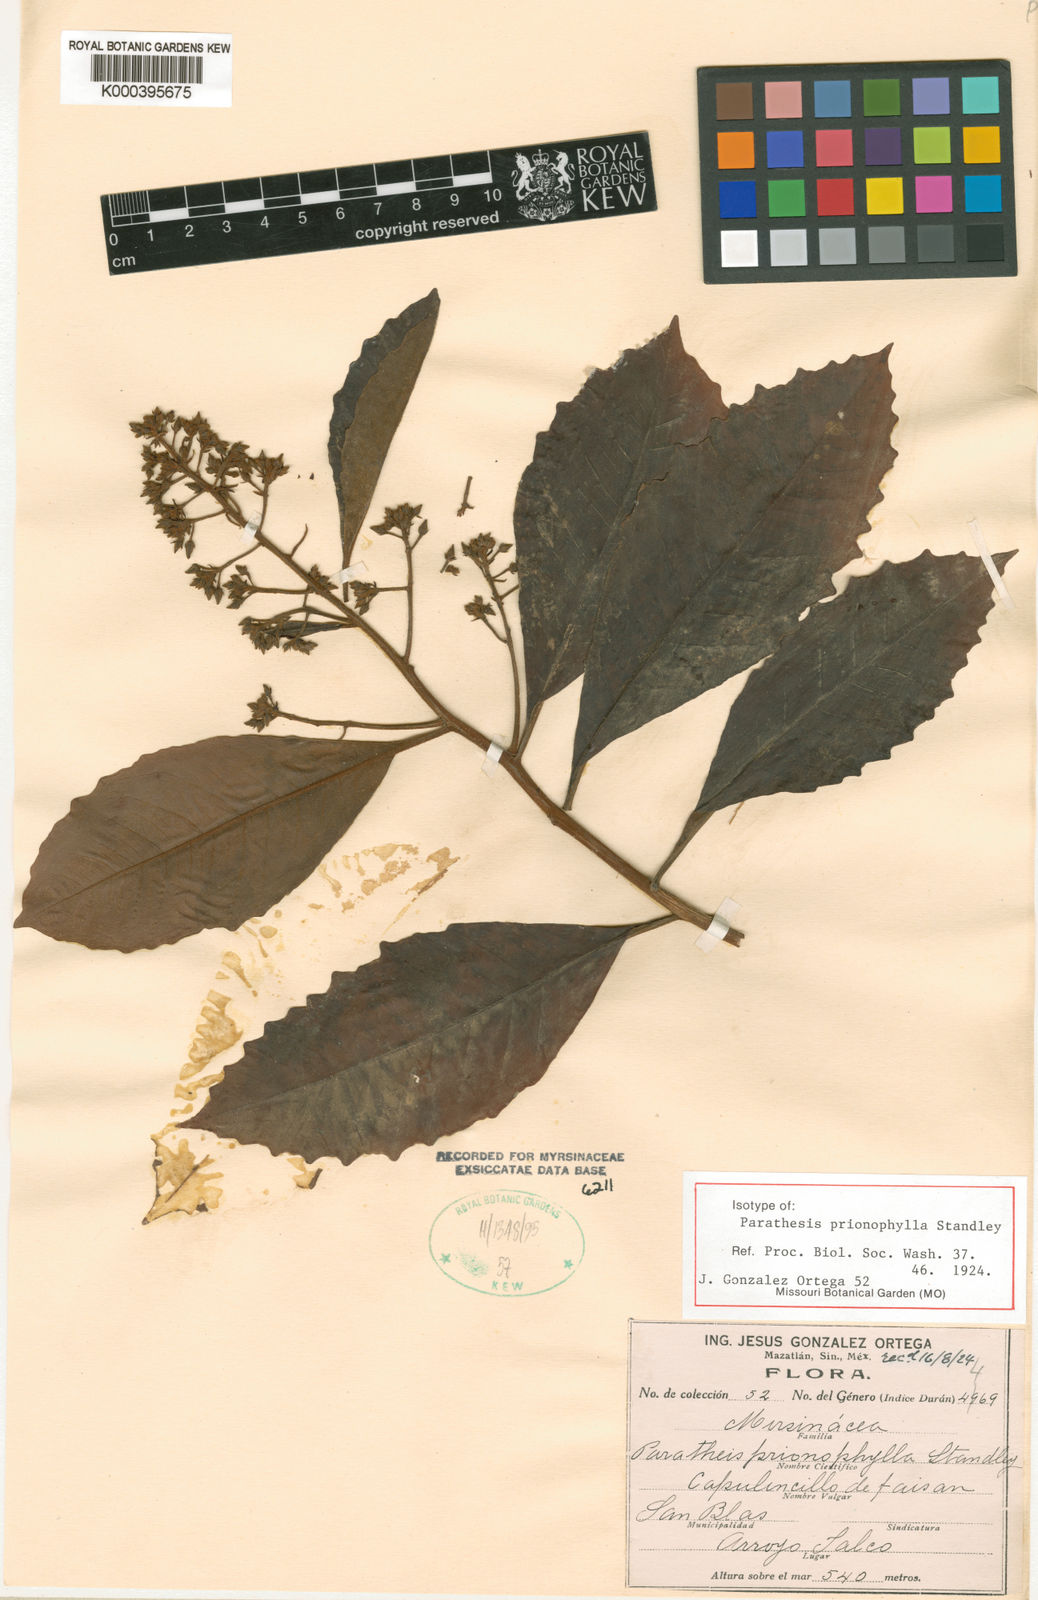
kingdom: Plantae
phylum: Tracheophyta
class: Magnoliopsida
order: Ericales
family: Primulaceae
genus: Parathesis
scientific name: Parathesis prionophylla
